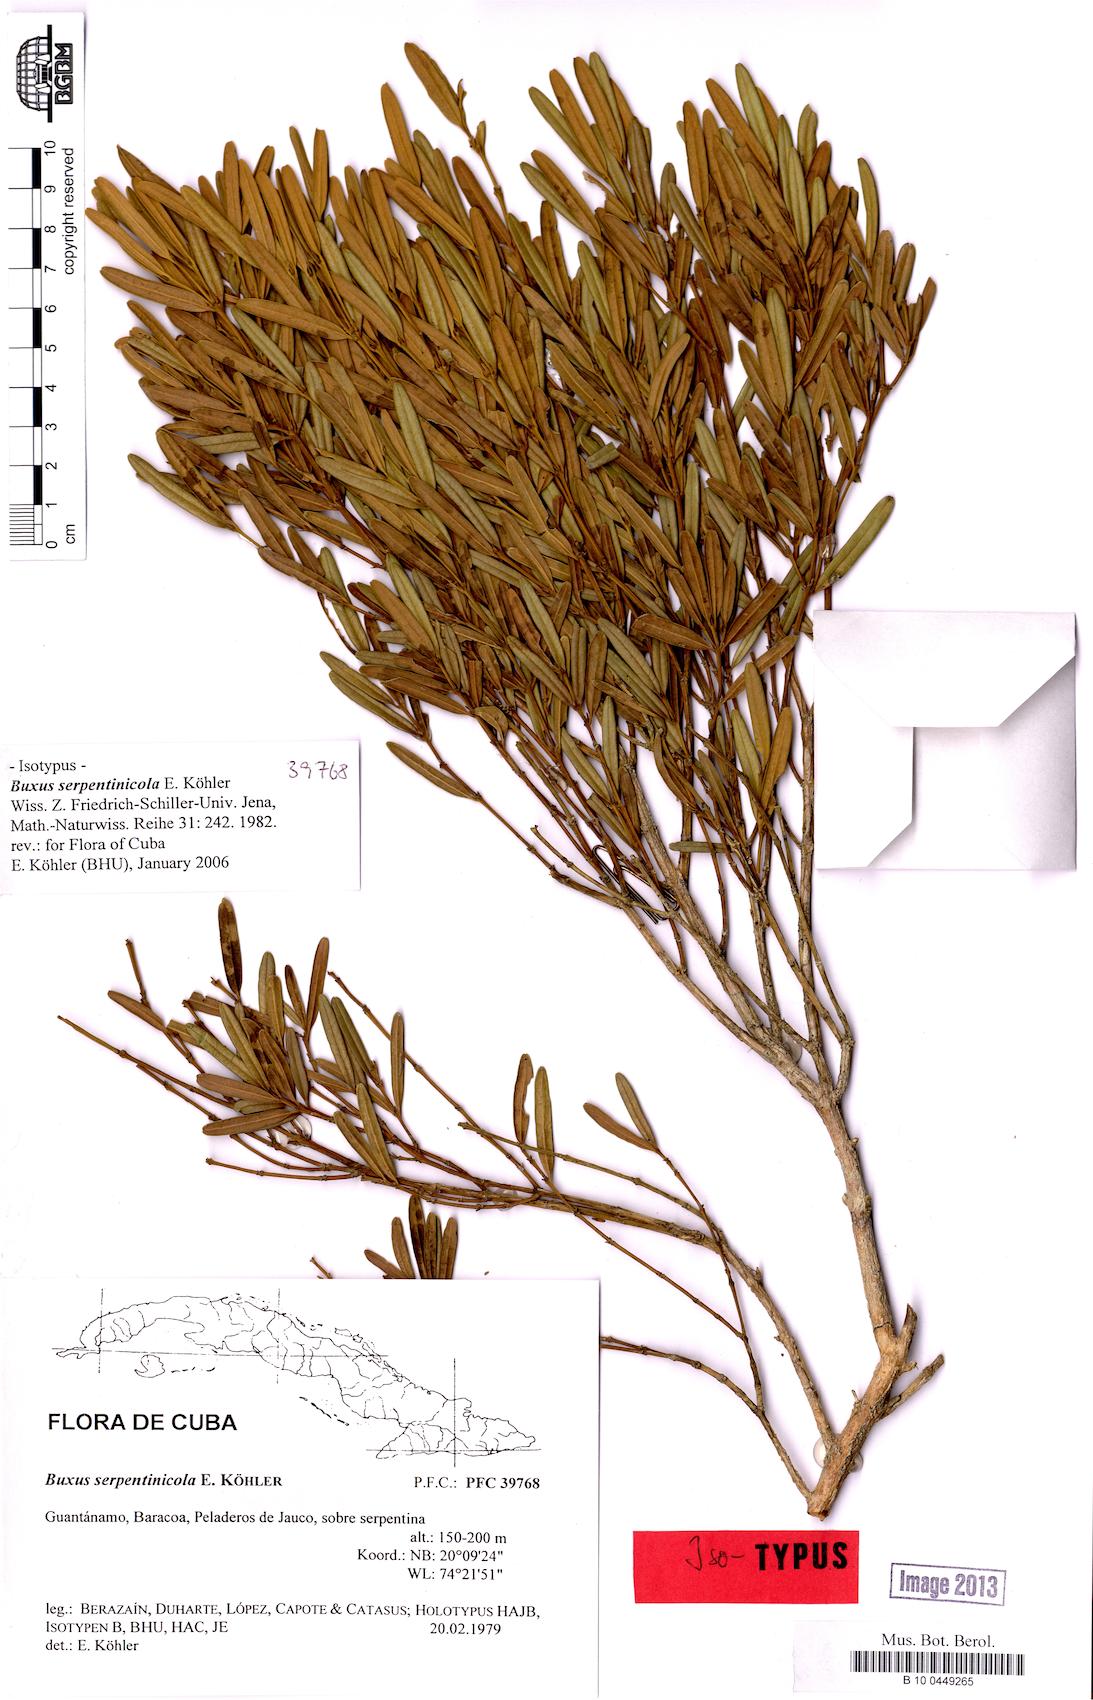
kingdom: Plantae
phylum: Tracheophyta
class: Magnoliopsida
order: Buxales
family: Buxaceae
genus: Buxus
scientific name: Buxus serpentinicola
